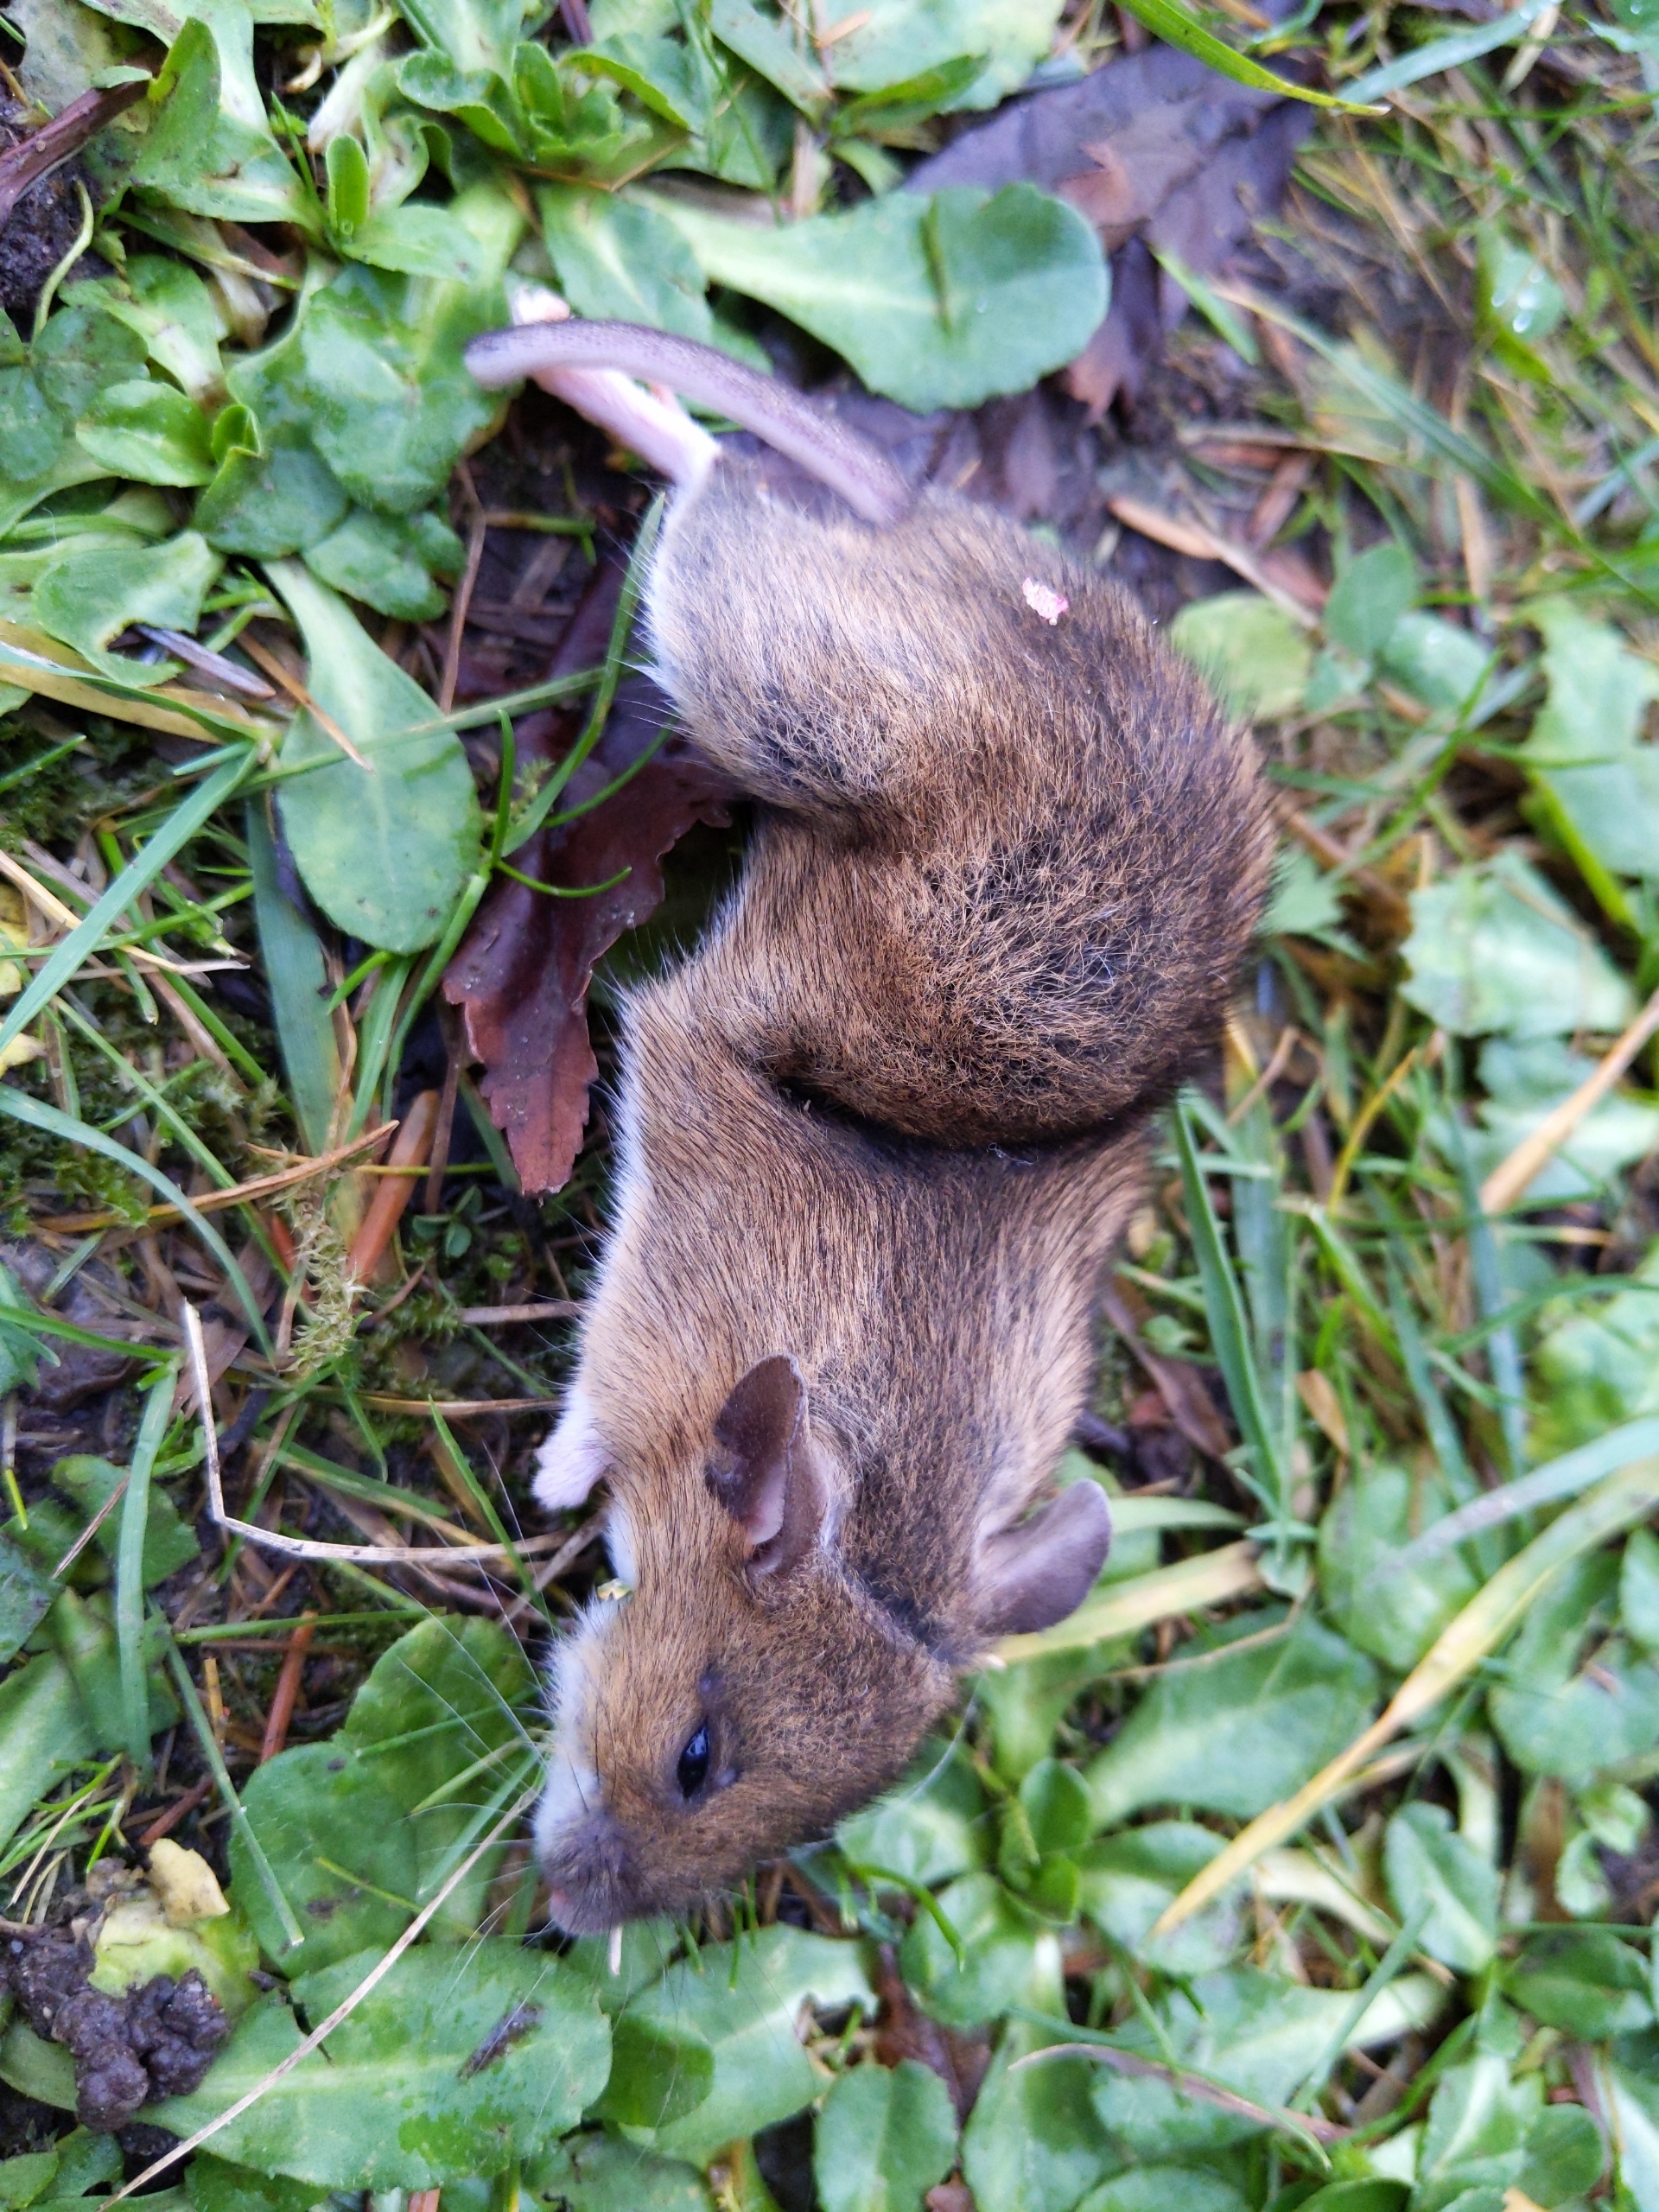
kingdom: Animalia
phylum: Chordata
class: Mammalia
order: Rodentia
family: Muridae
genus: Apodemus
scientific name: Apodemus flavicollis
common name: Halsbåndmus
